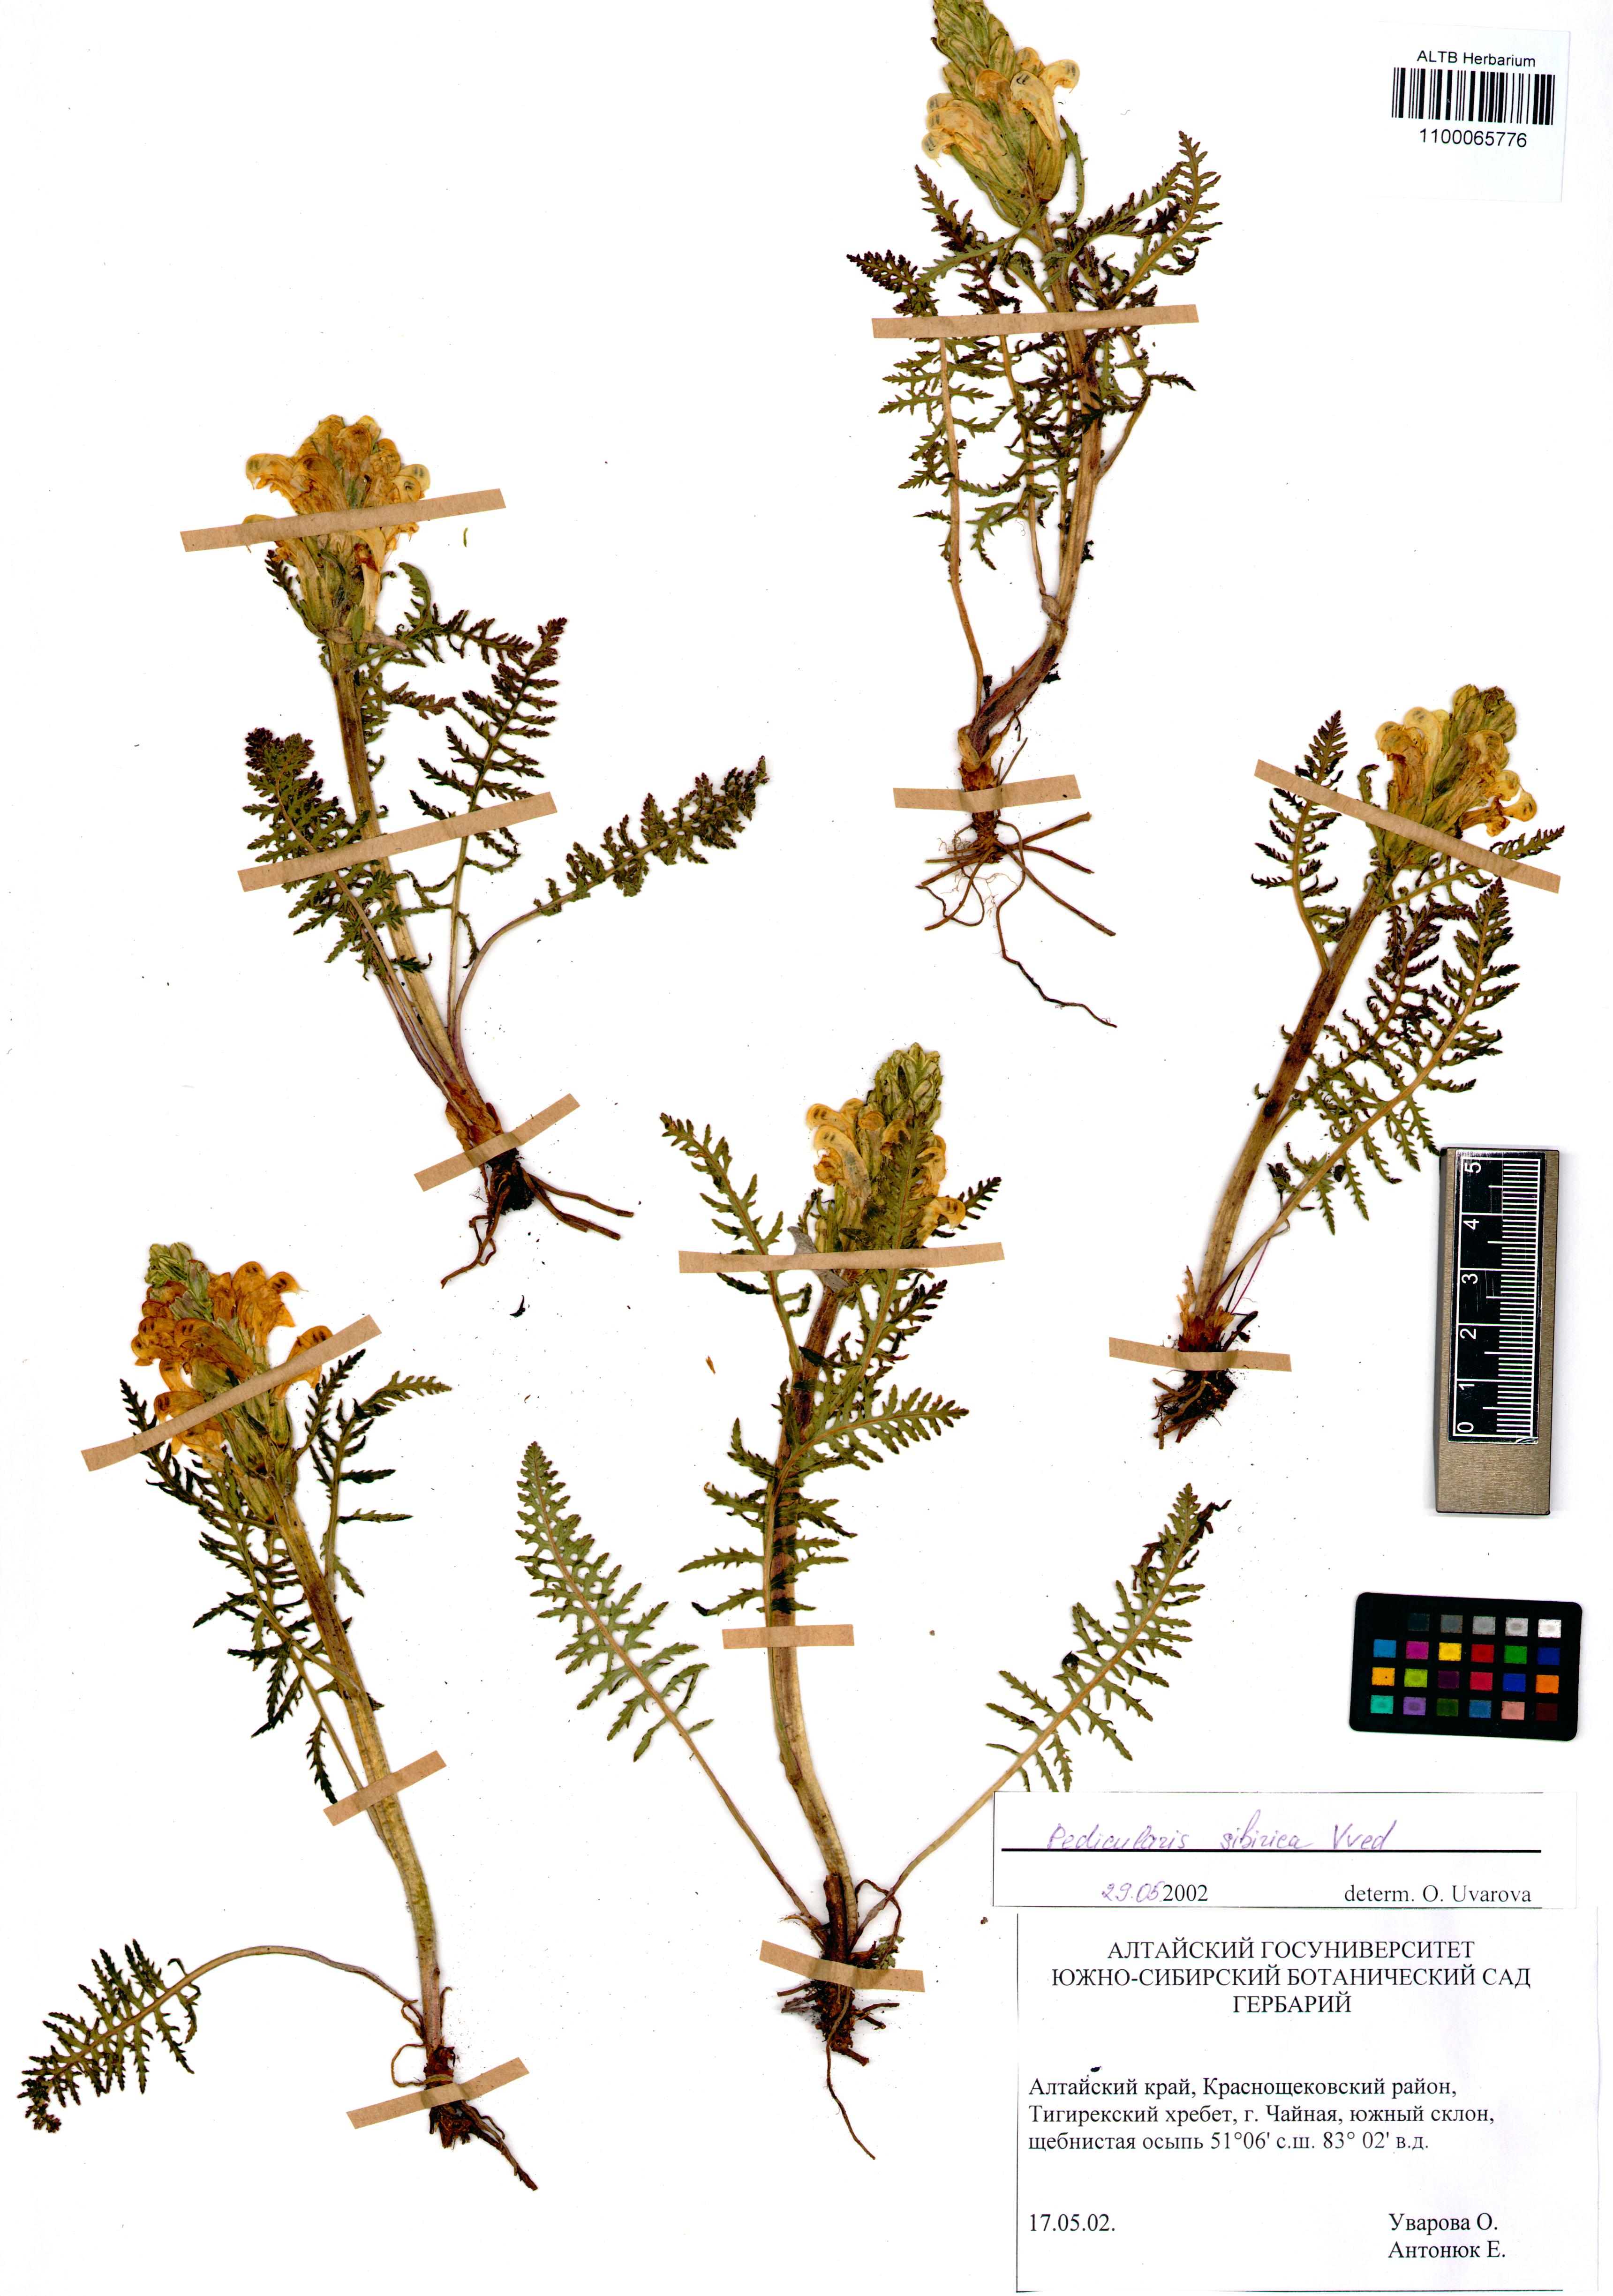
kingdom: Plantae
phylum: Tracheophyta
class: Magnoliopsida
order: Lamiales
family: Orobanchaceae
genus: Pedicularis
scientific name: Pedicularis sibirica
